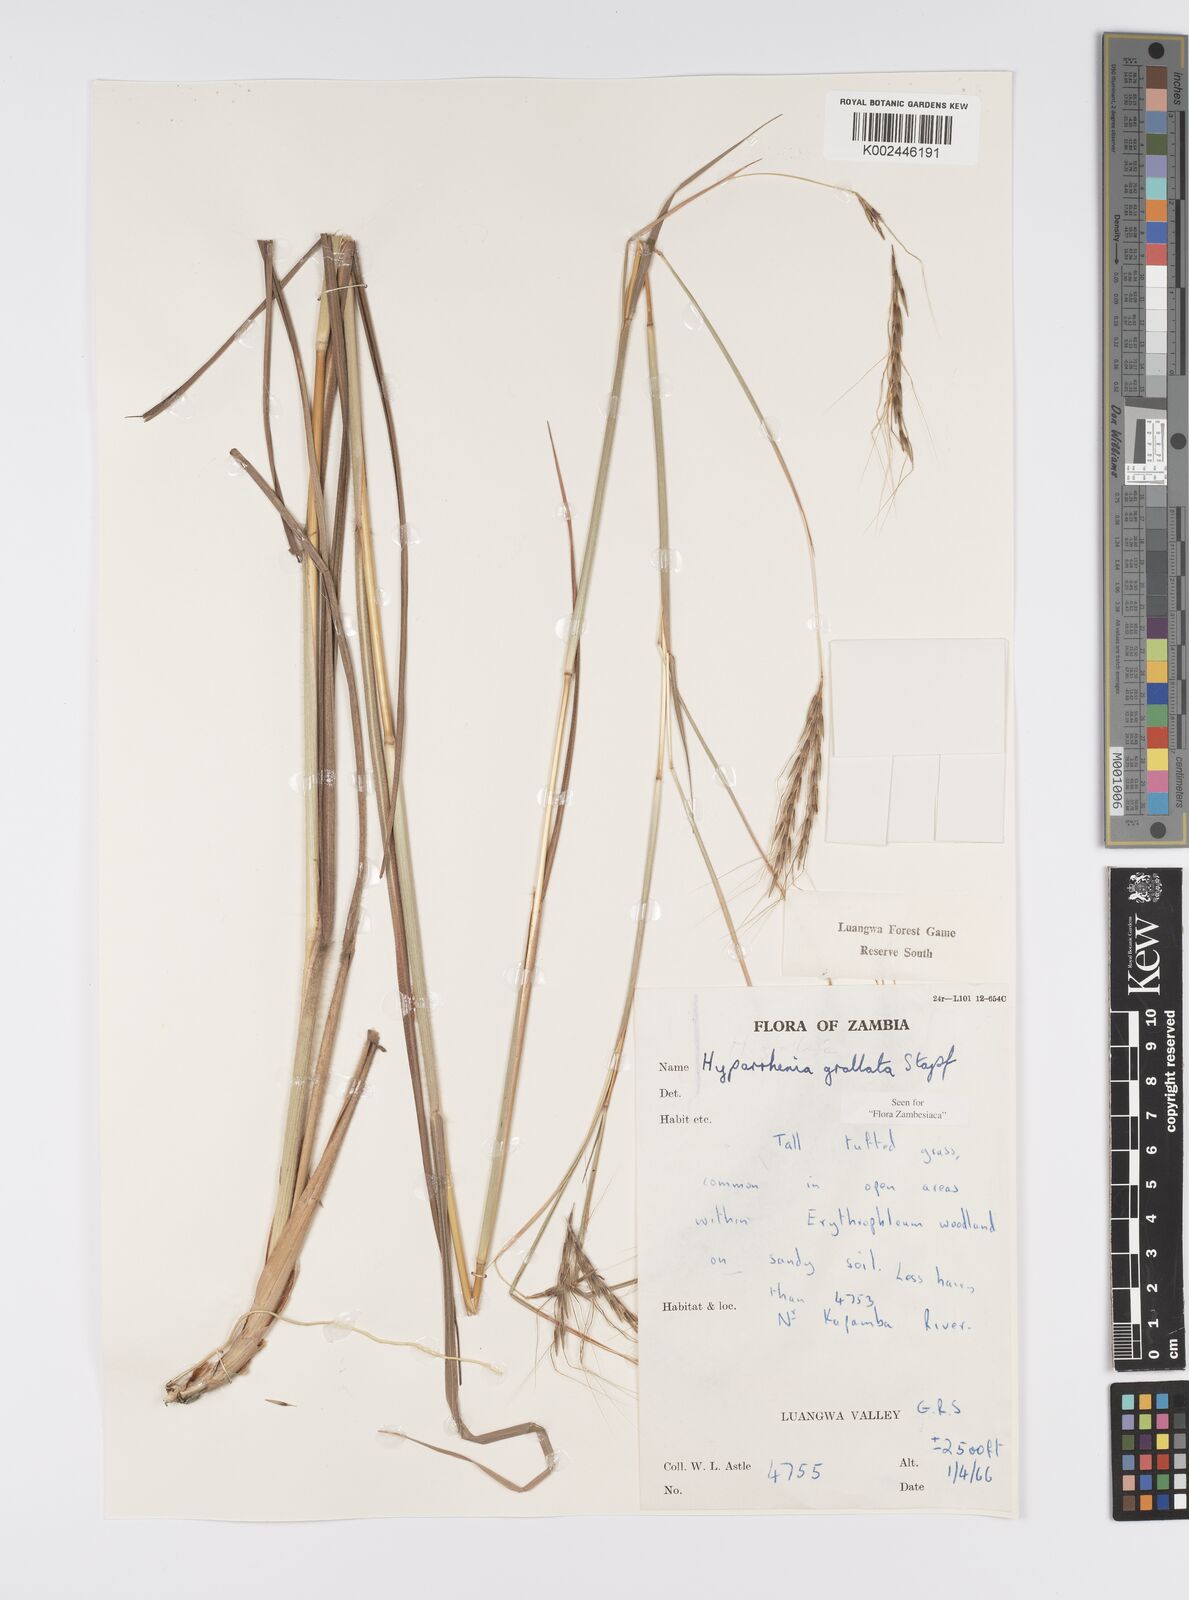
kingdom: Plantae
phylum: Tracheophyta
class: Liliopsida
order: Poales
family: Poaceae
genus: Elymandra
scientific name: Elymandra grallata
